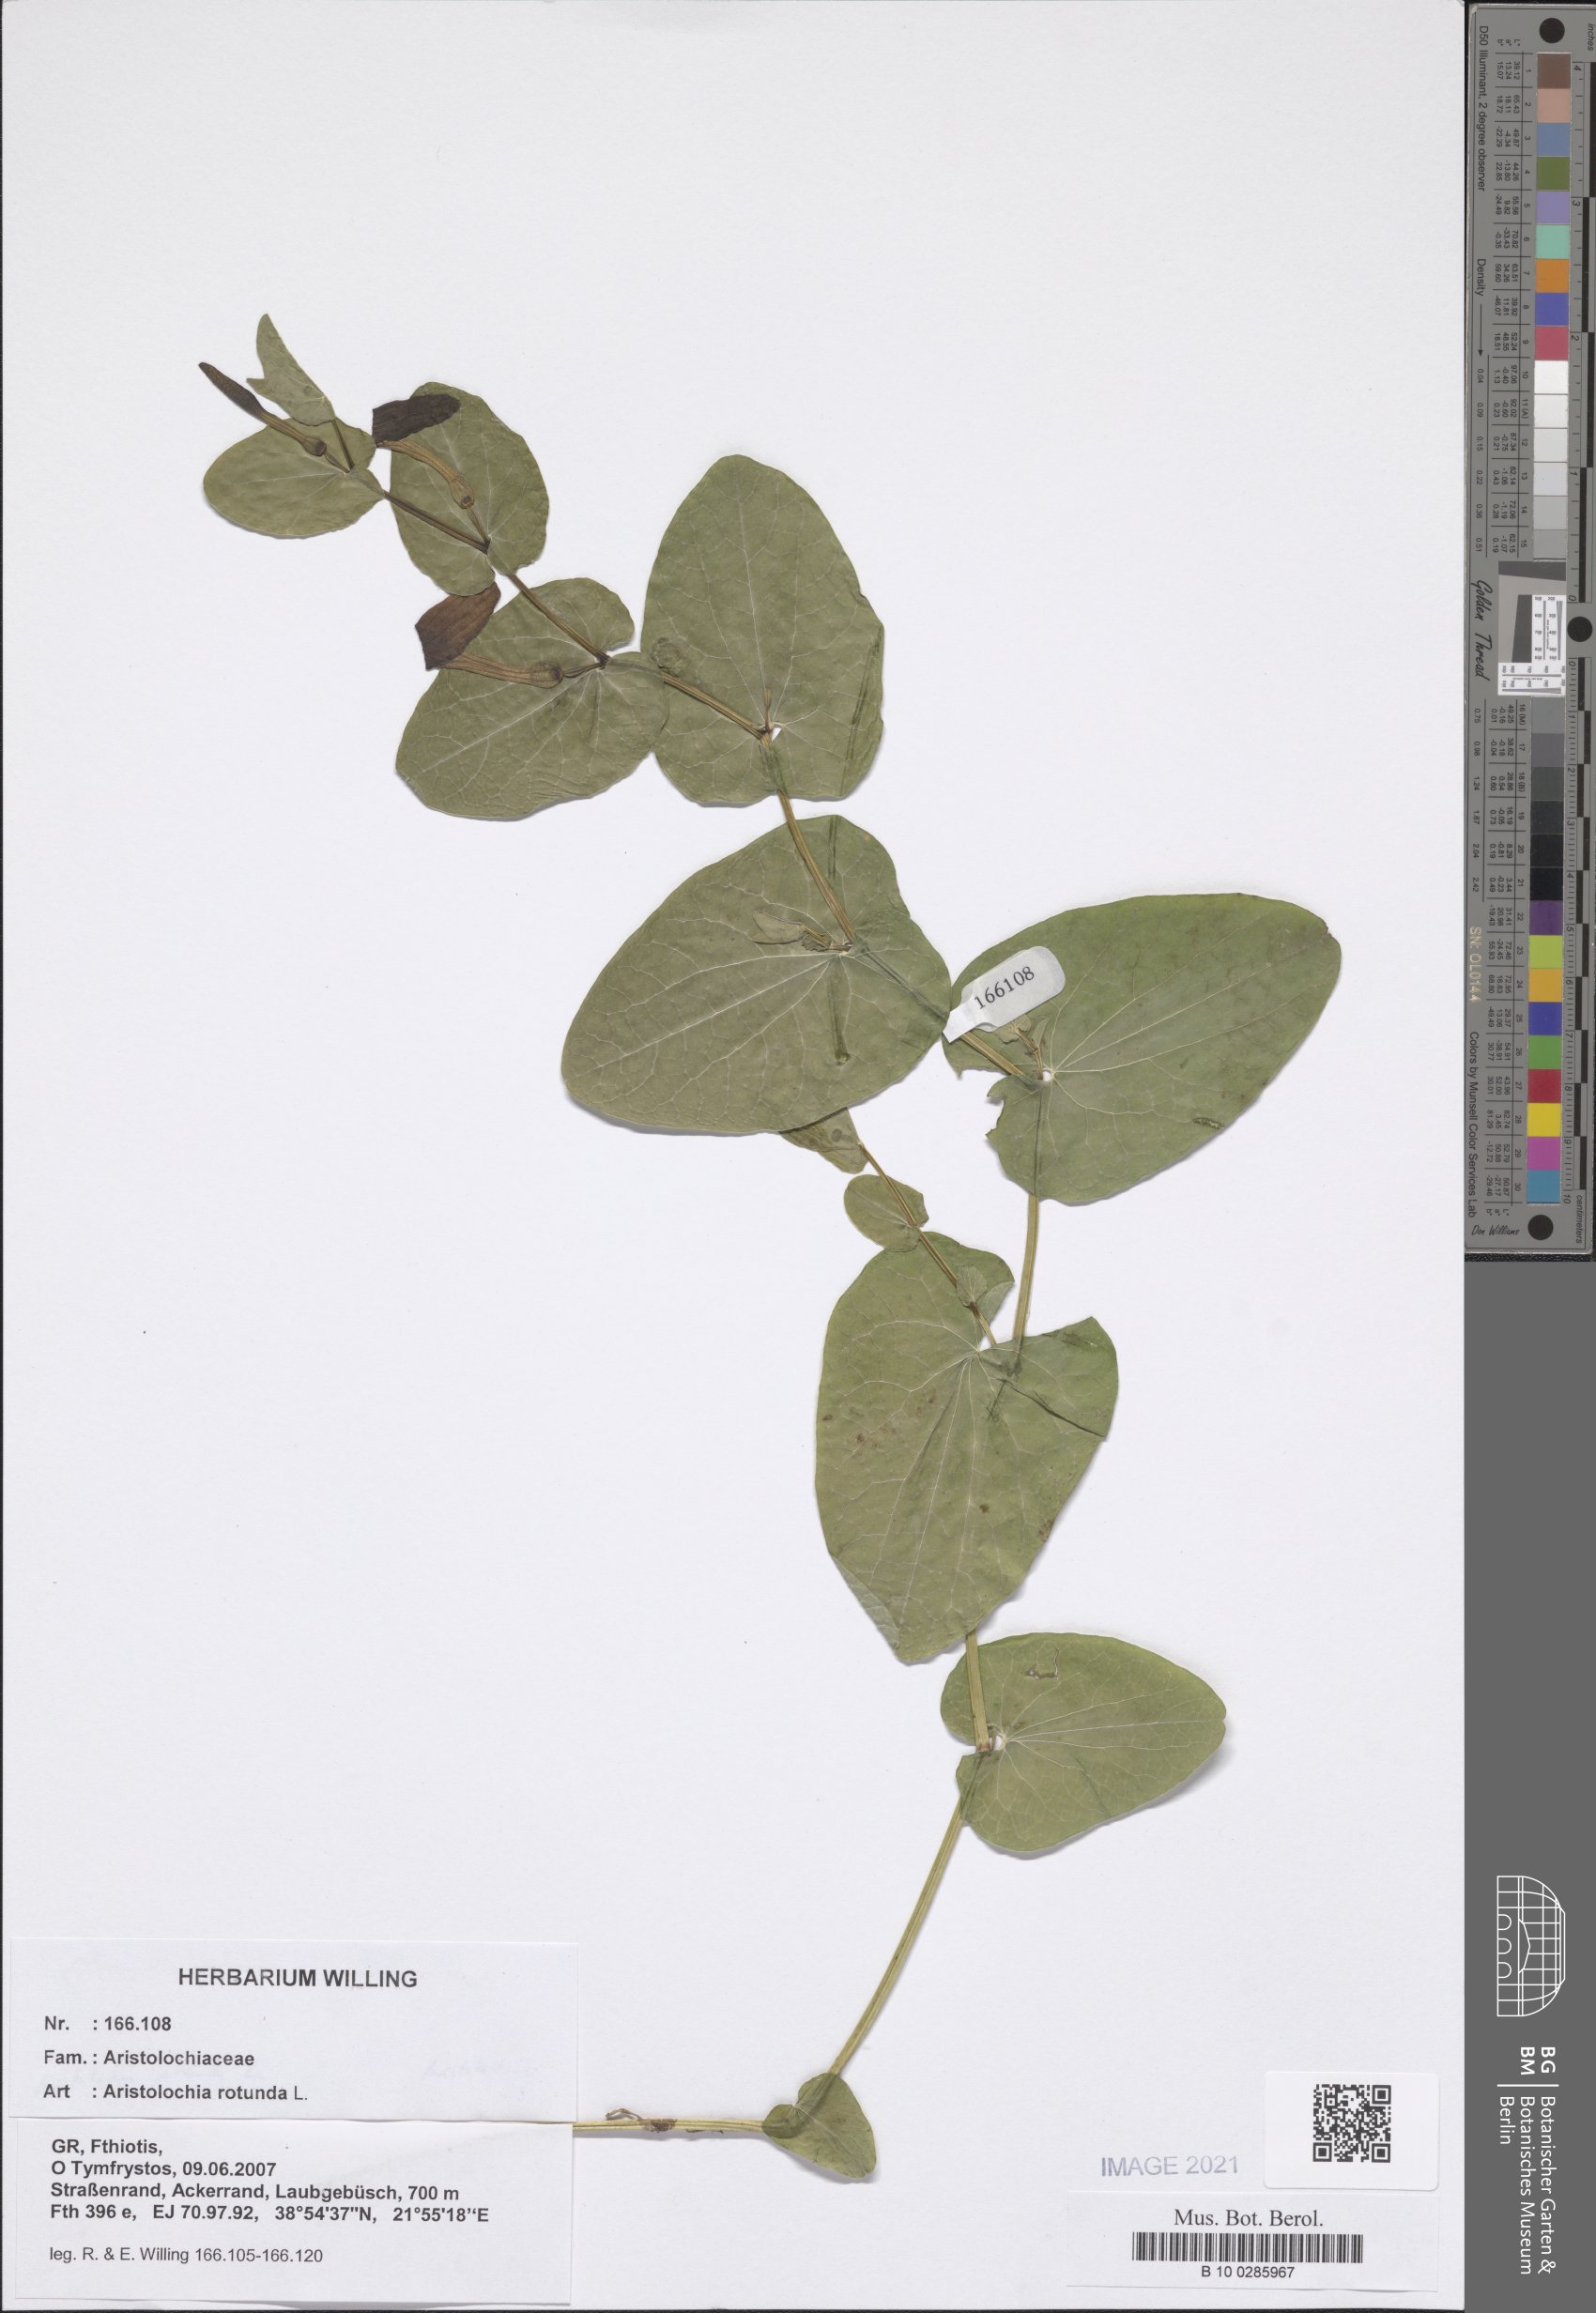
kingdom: Plantae
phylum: Tracheophyta
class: Magnoliopsida
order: Piperales
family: Aristolochiaceae
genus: Aristolochia
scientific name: Aristolochia rotunda
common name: Smearwort
